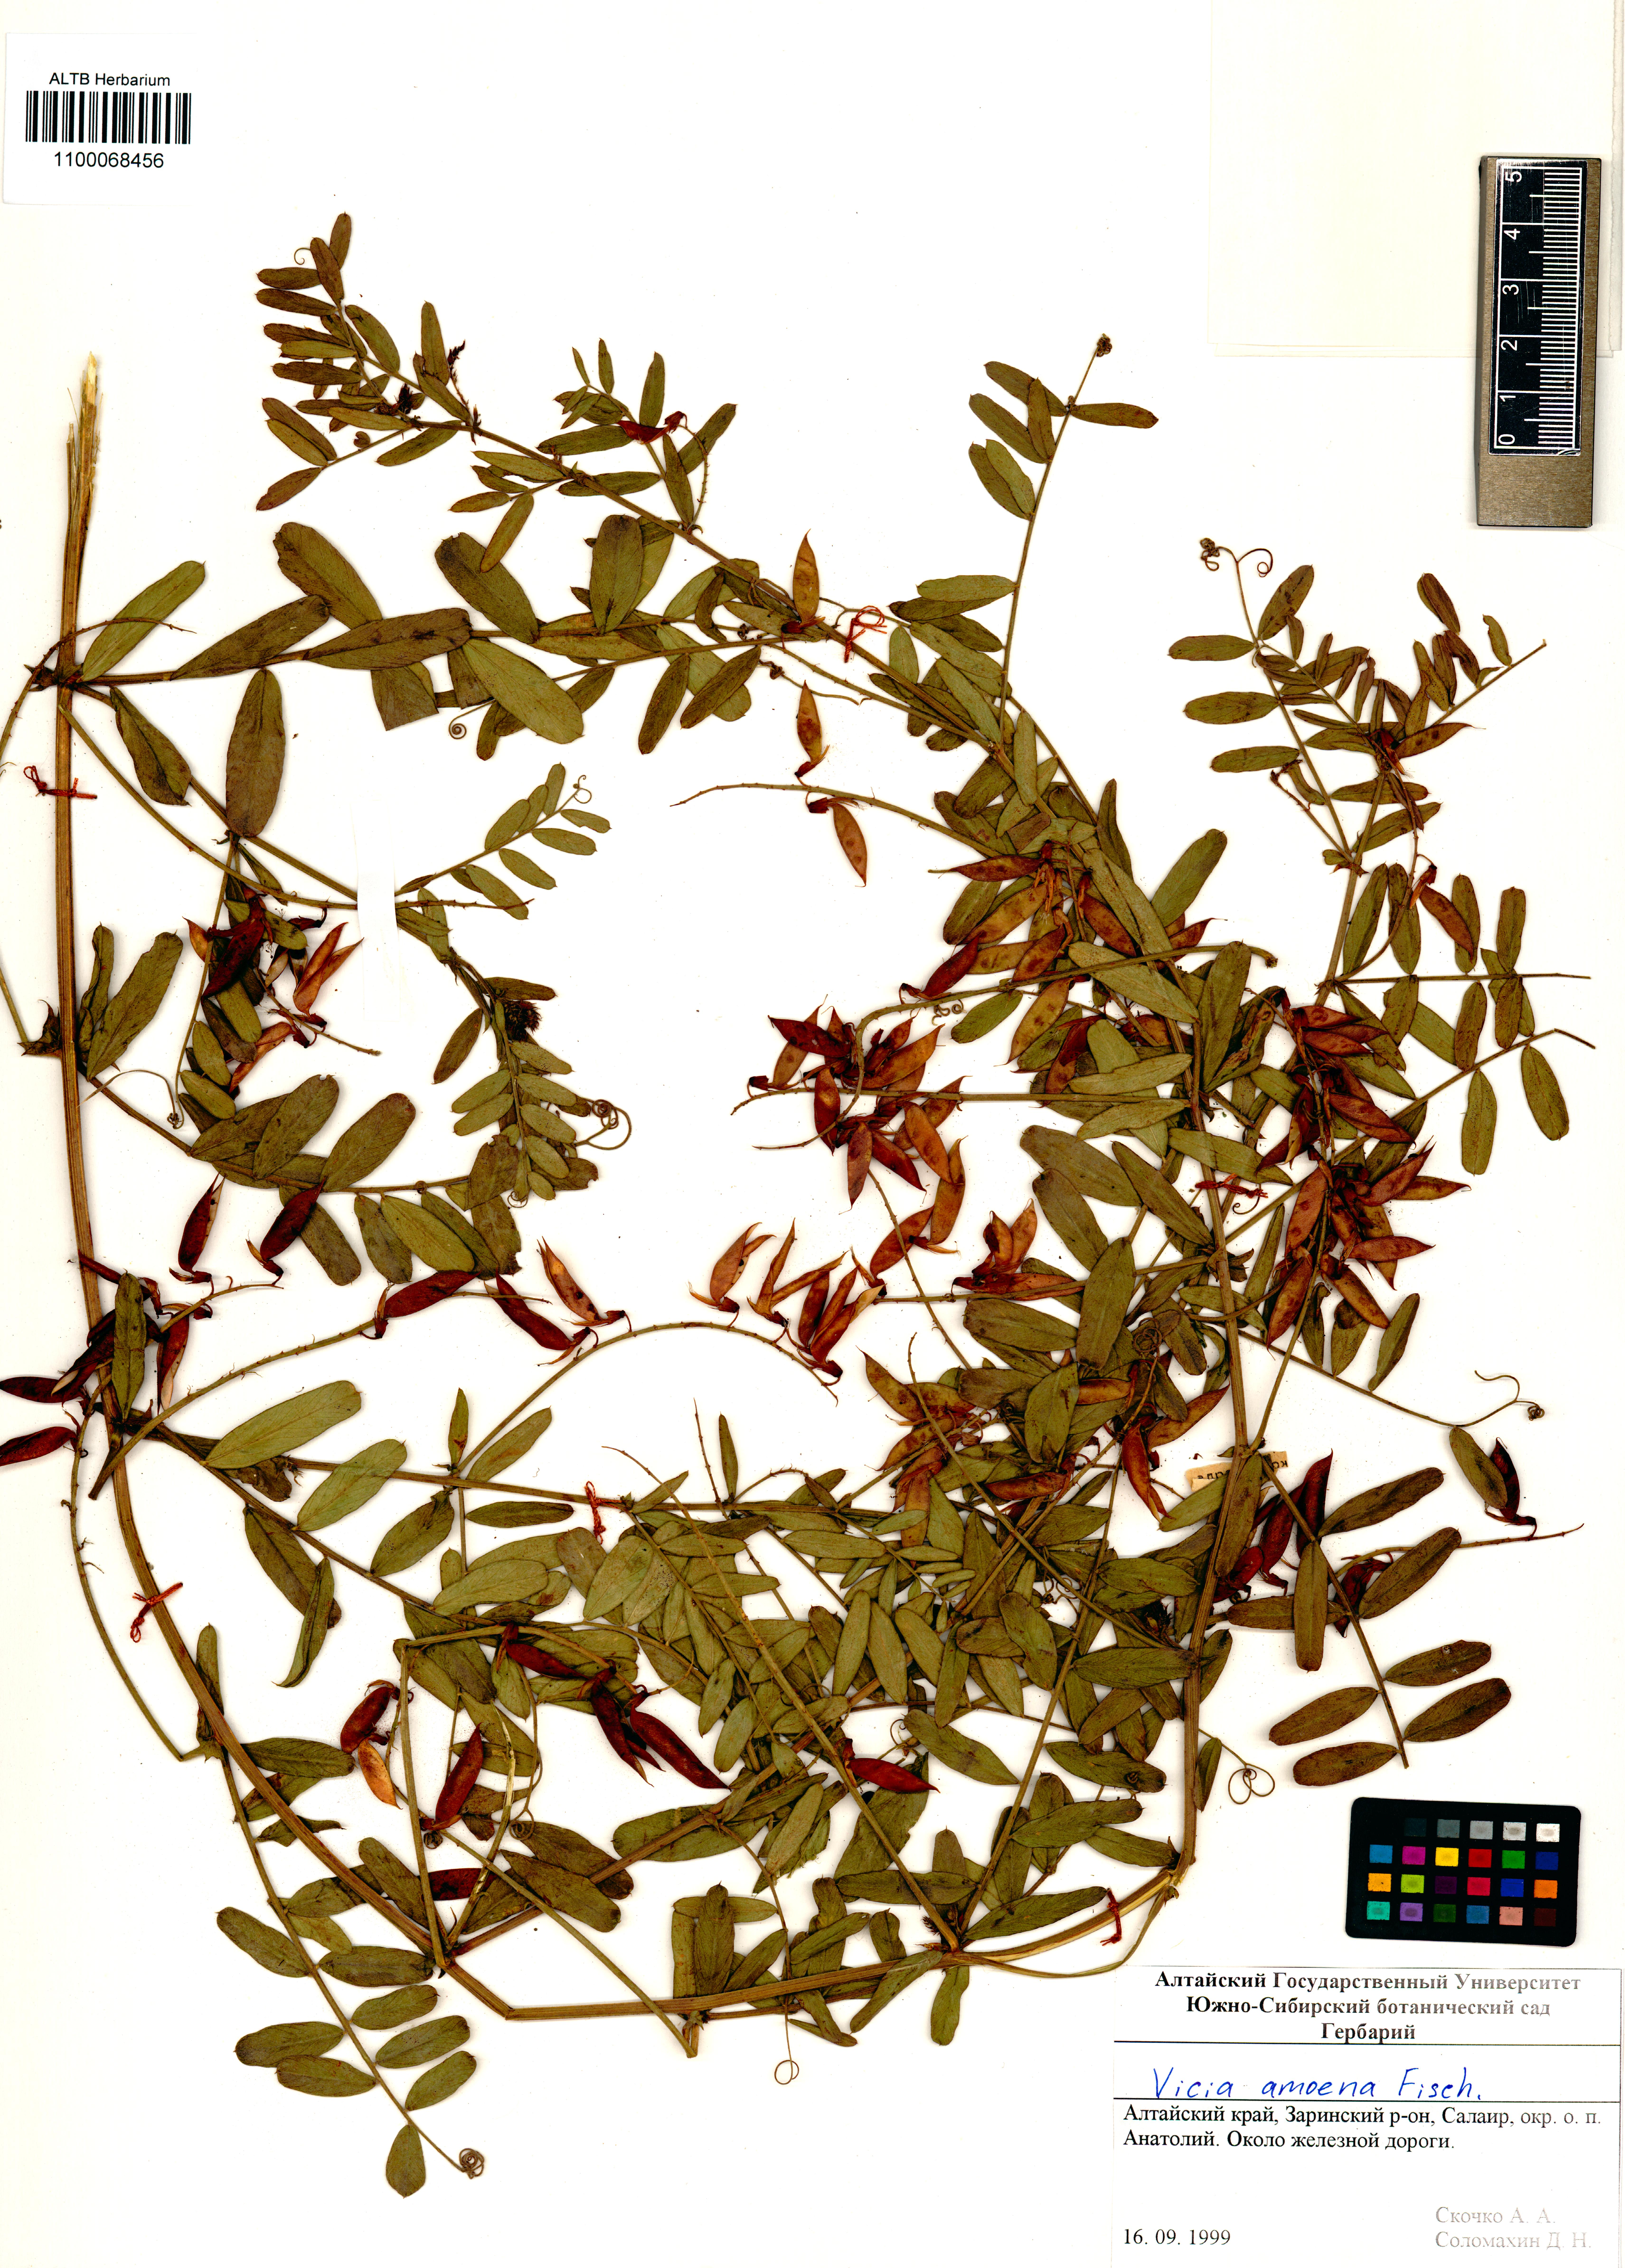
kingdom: Plantae
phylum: Tracheophyta
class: Magnoliopsida
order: Fabales
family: Fabaceae
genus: Vicia
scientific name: Vicia amoena
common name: Cheder ebs
